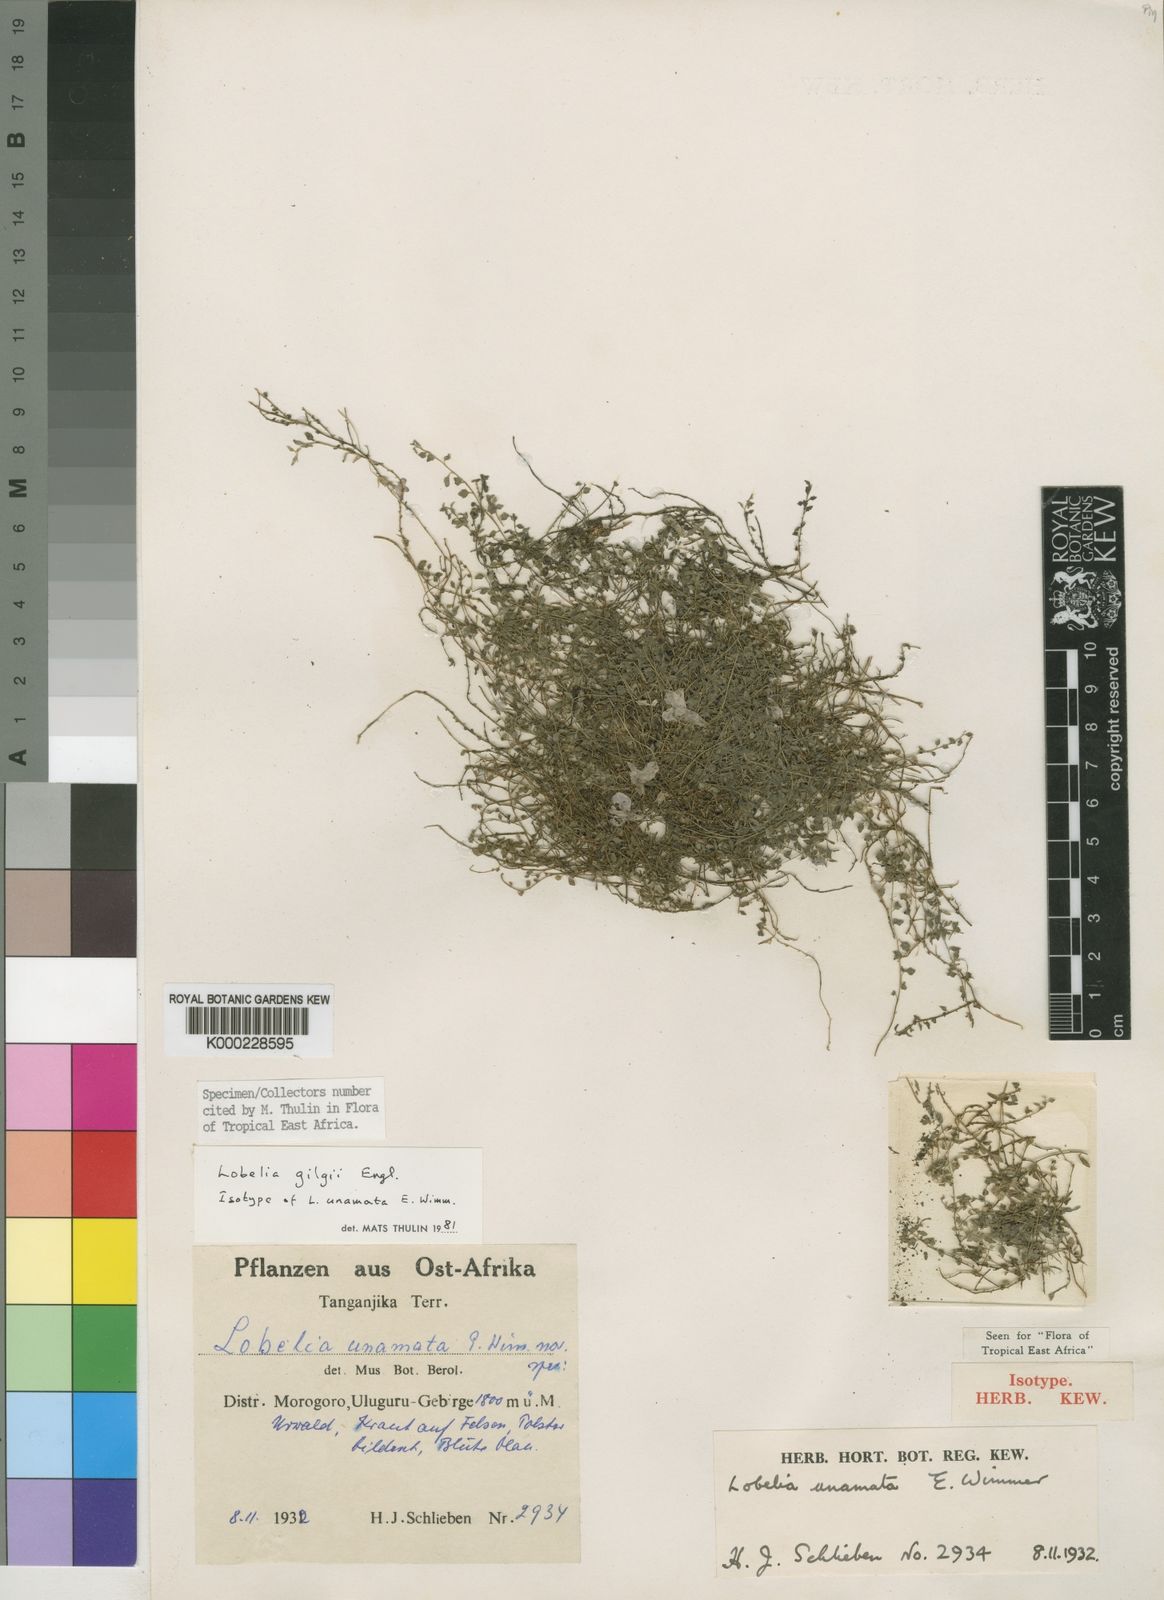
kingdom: Plantae
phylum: Tracheophyta
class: Magnoliopsida
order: Asterales
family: Campanulaceae
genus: Lobelia
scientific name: Lobelia gilgii
